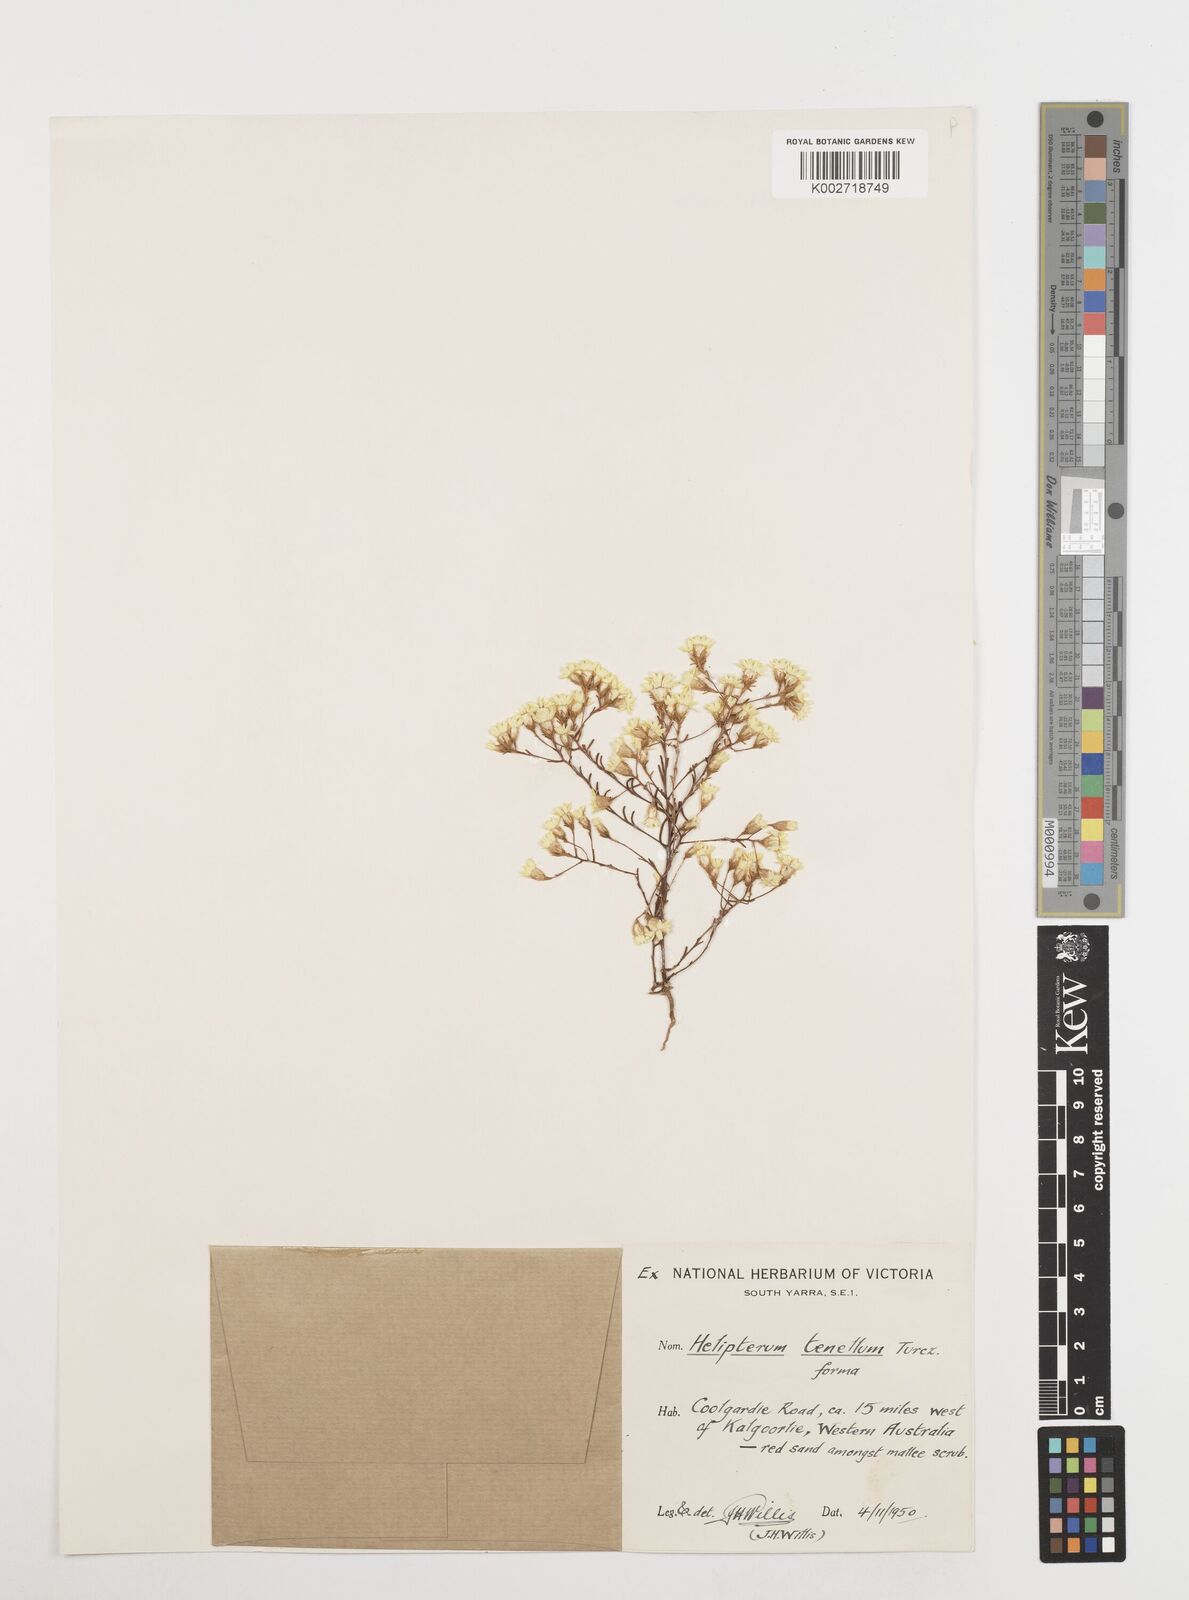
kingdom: Plantae
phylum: Tracheophyta
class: Magnoliopsida
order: Asterales
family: Asteraceae
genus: Erymophyllum
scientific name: Erymophyllum tenellum
